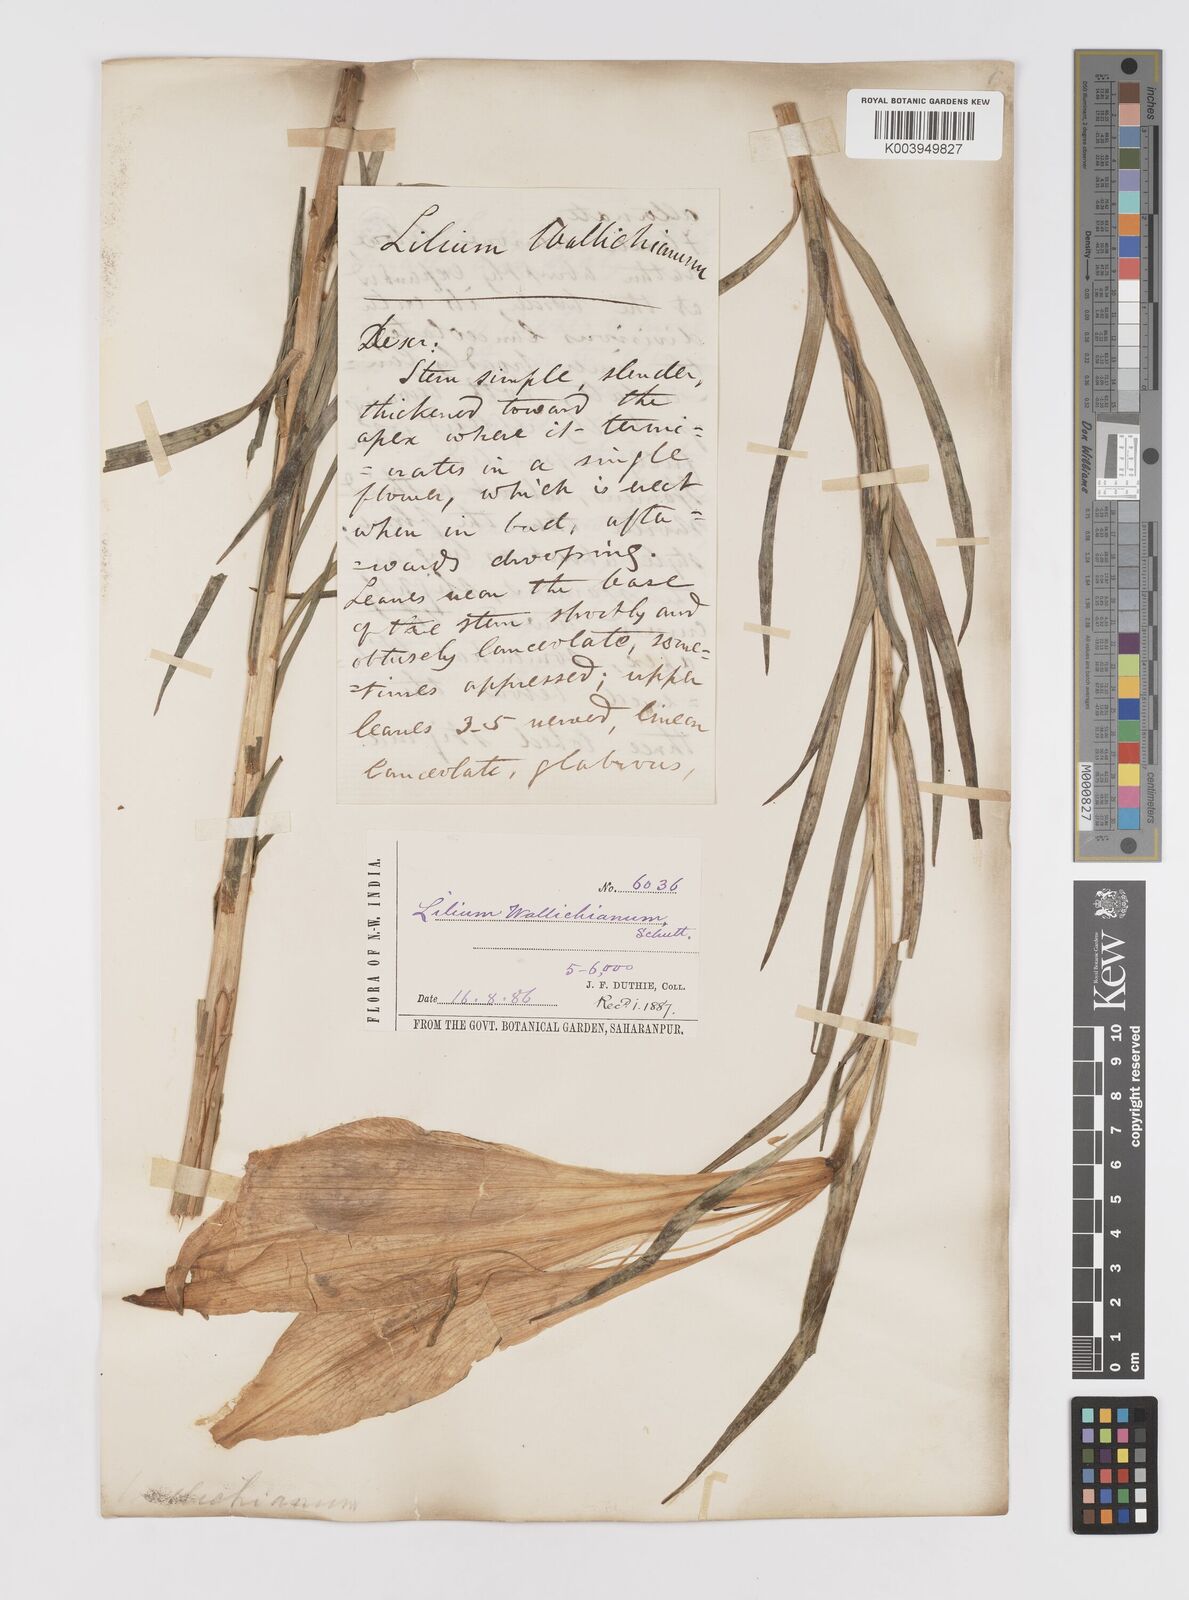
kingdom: Plantae
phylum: Tracheophyta
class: Liliopsida
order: Liliales
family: Liliaceae
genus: Lilium
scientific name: Lilium wallichianum
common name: Wallich's lily
